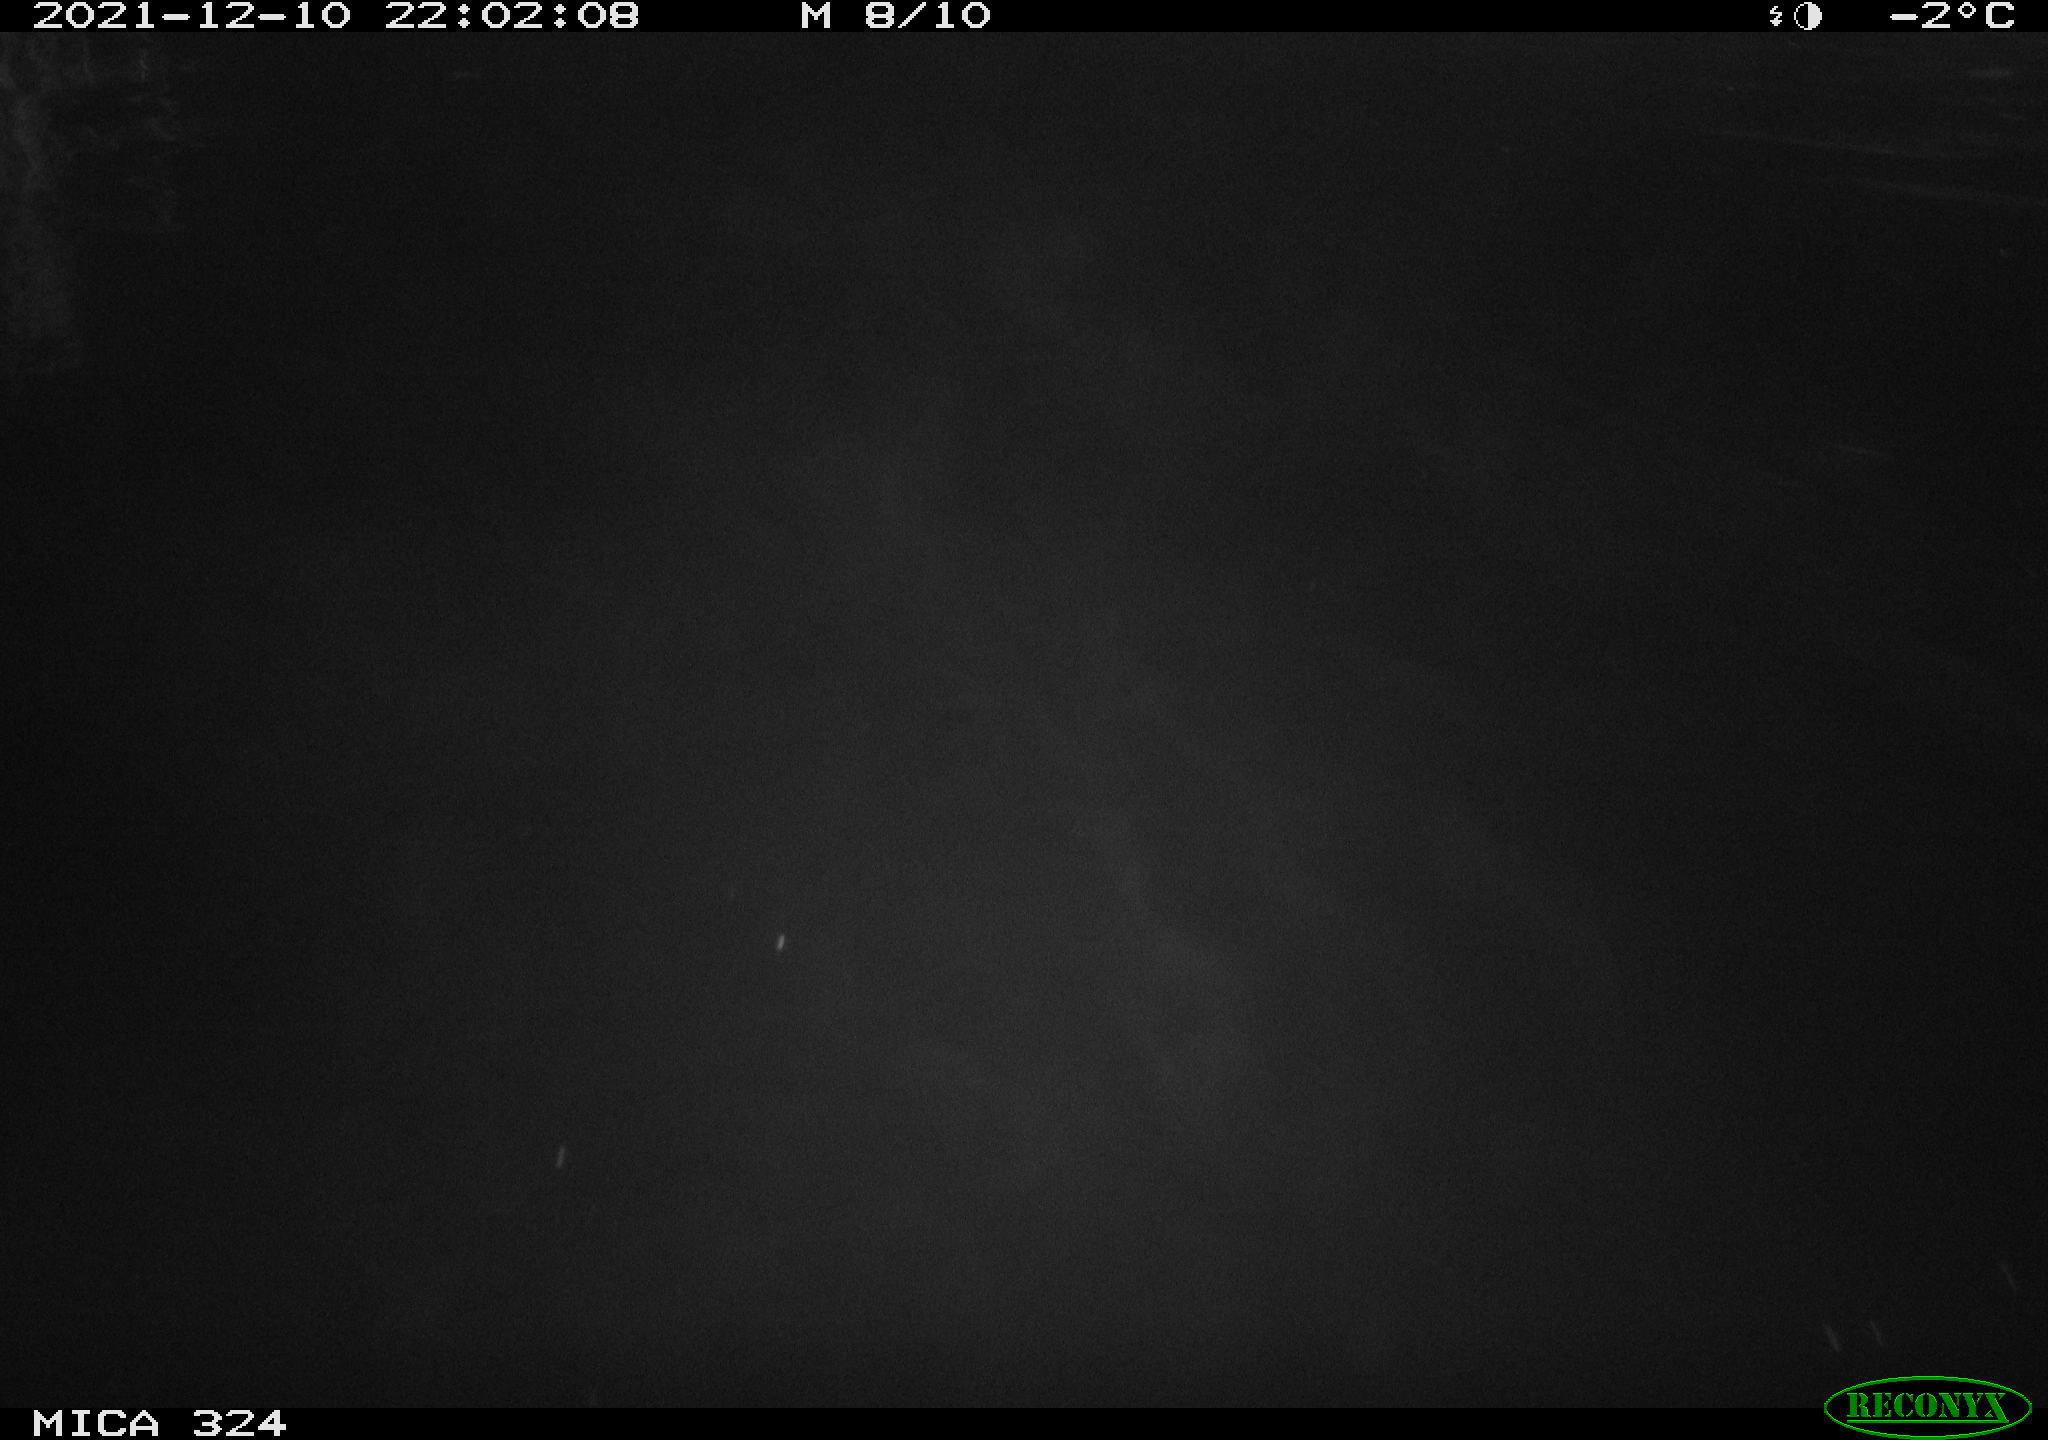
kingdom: Animalia
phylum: Chordata
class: Mammalia
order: Rodentia
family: Cricetidae
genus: Ondatra
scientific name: Ondatra zibethicus
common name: Muskrat
